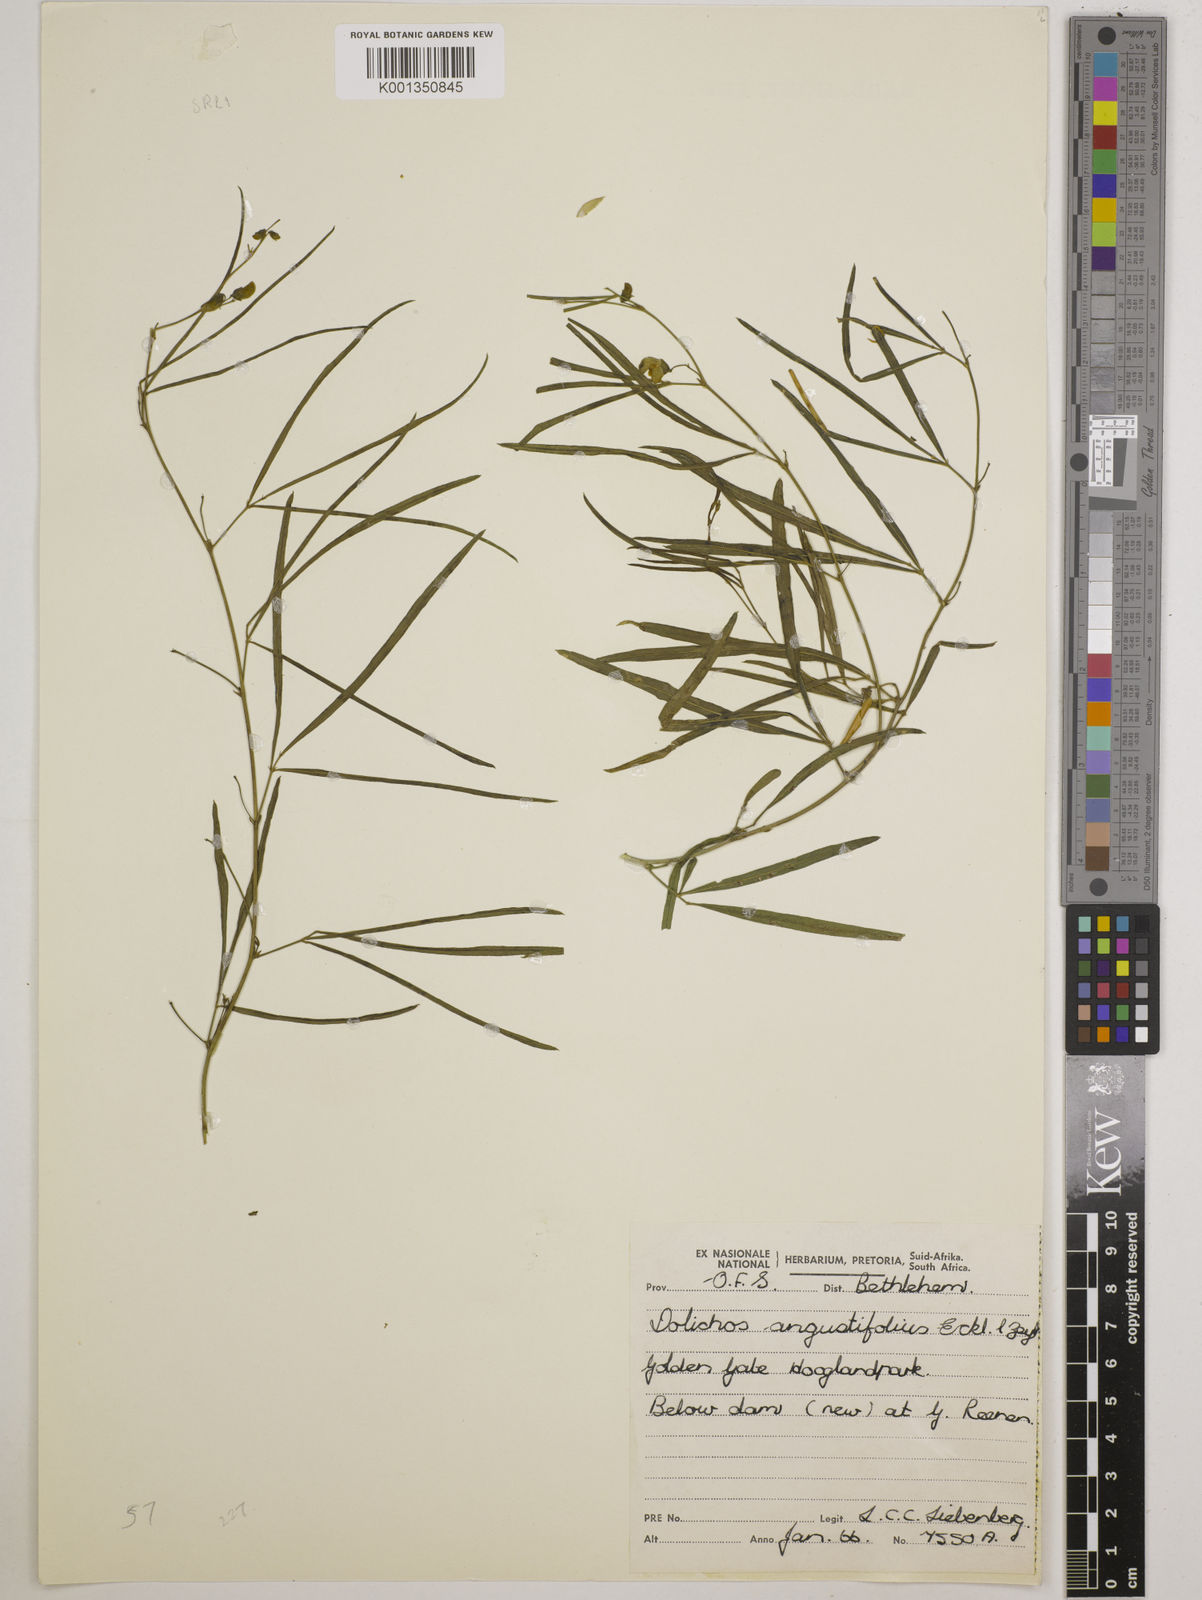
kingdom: Plantae
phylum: Tracheophyta
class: Magnoliopsida
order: Fabales
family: Fabaceae
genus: Dolichos
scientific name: Dolichos linearis
